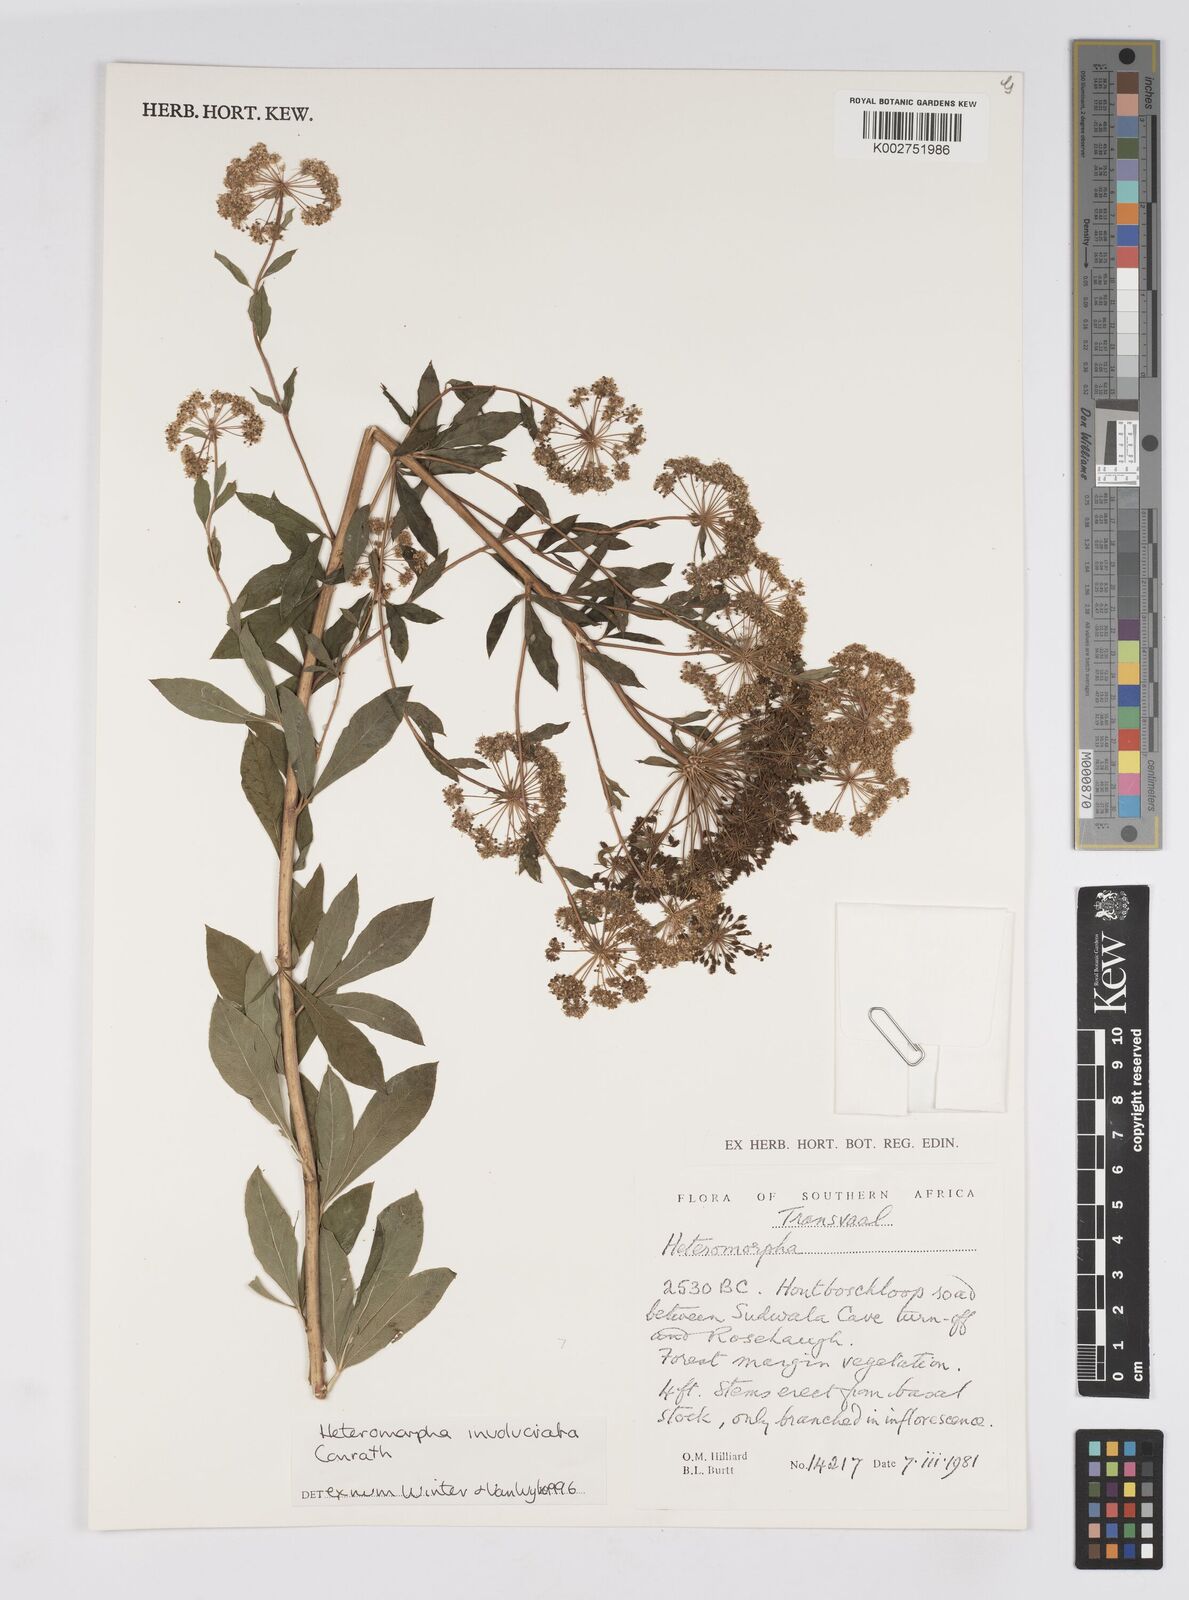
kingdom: Plantae
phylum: Tracheophyta
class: Magnoliopsida
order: Apiales
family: Apiaceae
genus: Heteromorpha
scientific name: Heteromorpha involucrata
